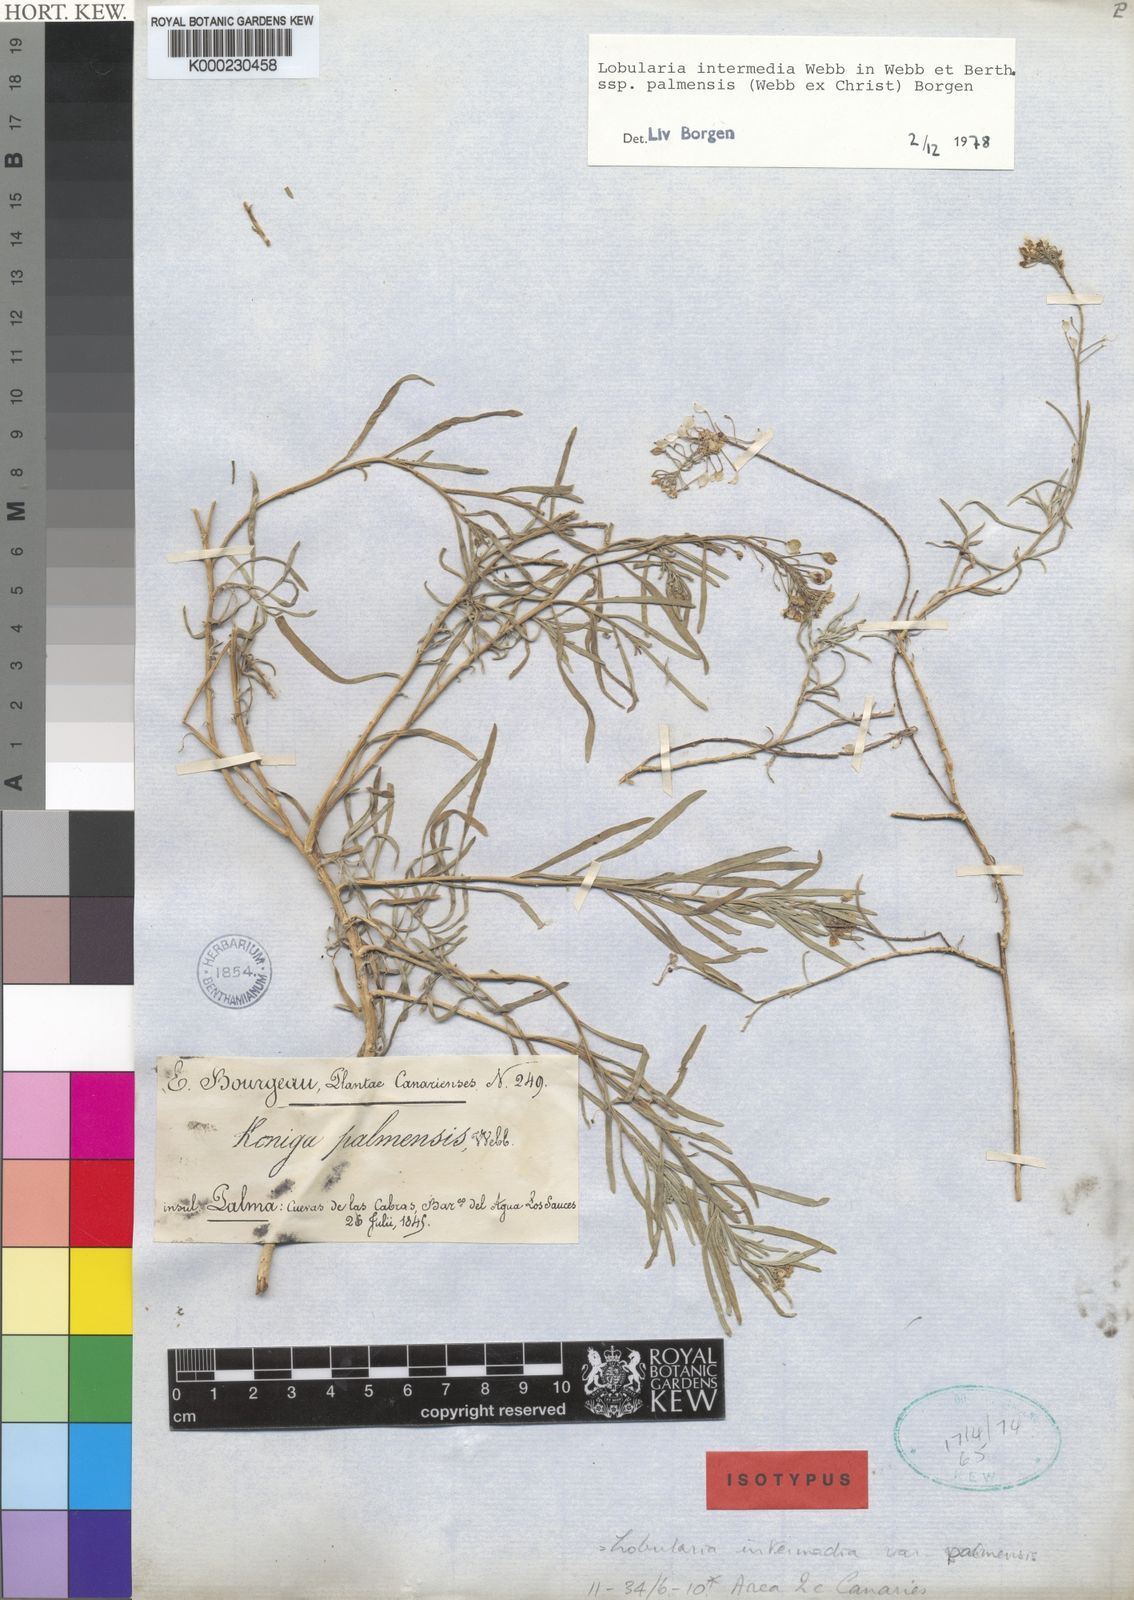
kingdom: Plantae
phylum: Tracheophyta
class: Magnoliopsida
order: Brassicales
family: Brassicaceae
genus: Lobularia
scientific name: Lobularia canariensis
